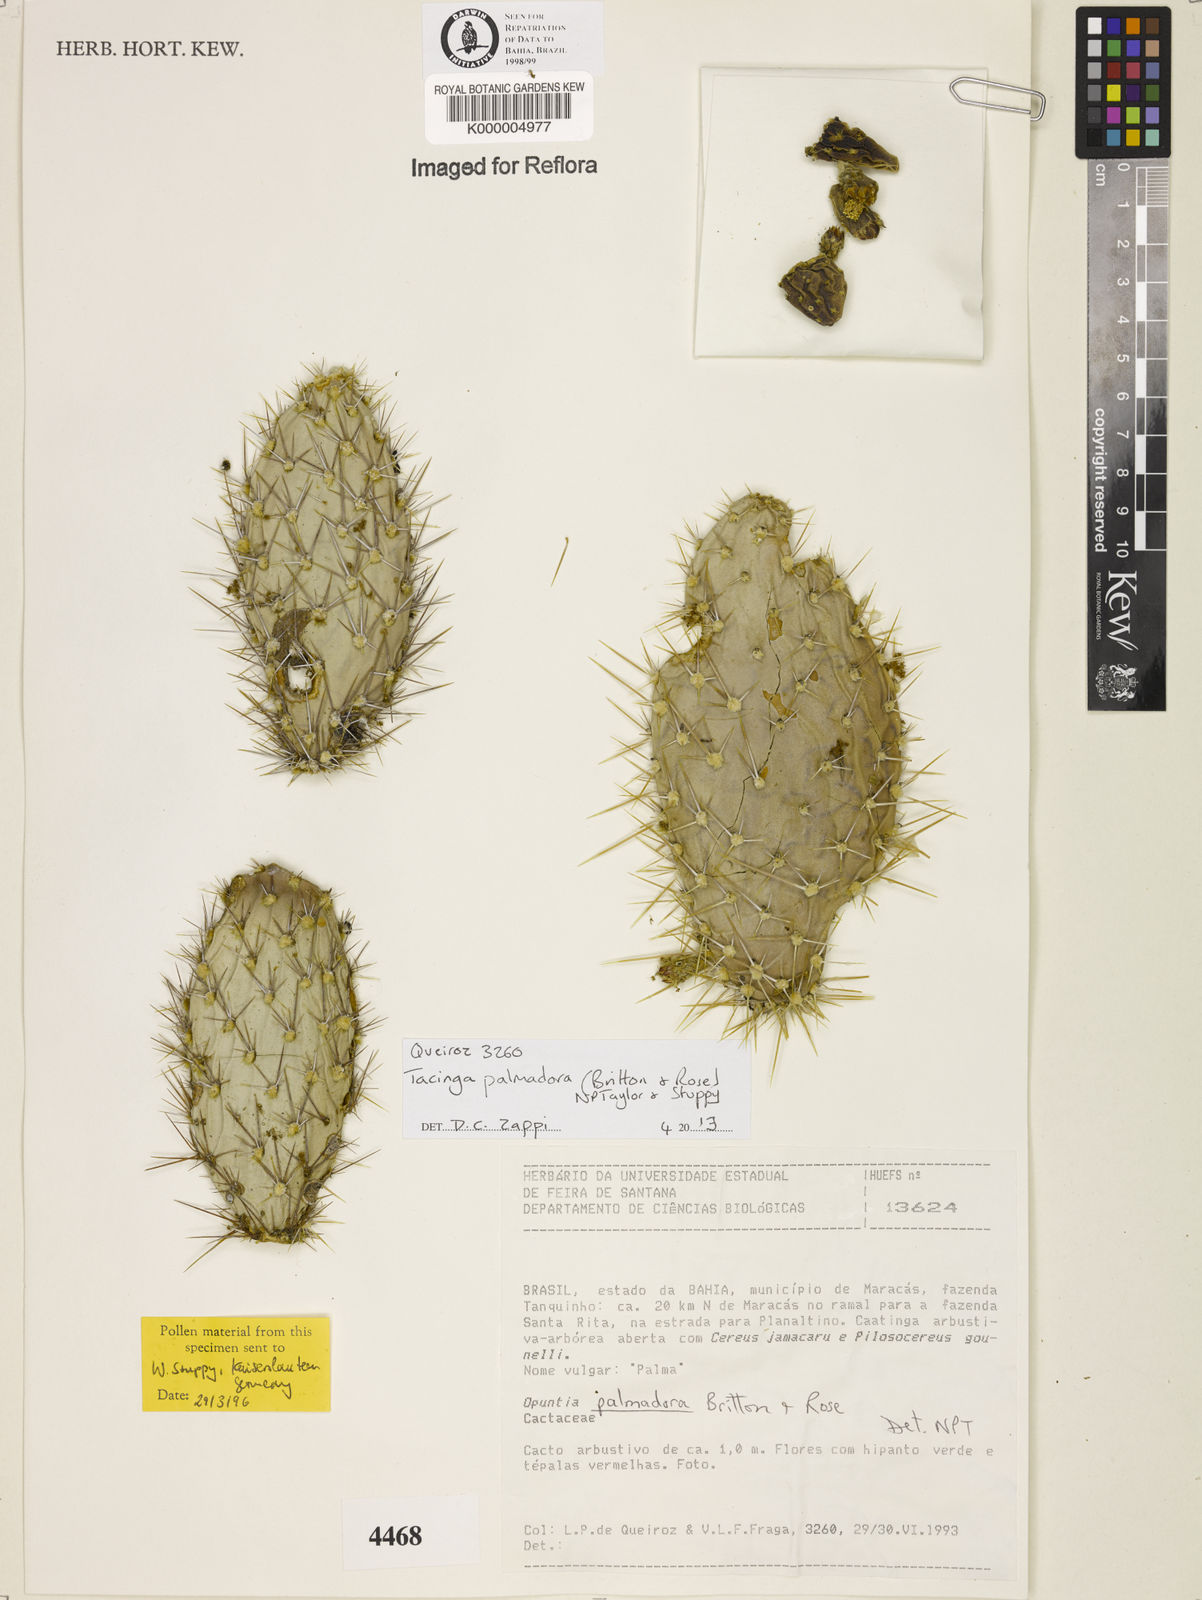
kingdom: Plantae
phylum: Tracheophyta
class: Magnoliopsida
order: Caryophyllales
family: Cactaceae
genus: Tacinga
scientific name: Tacinga palmadora
